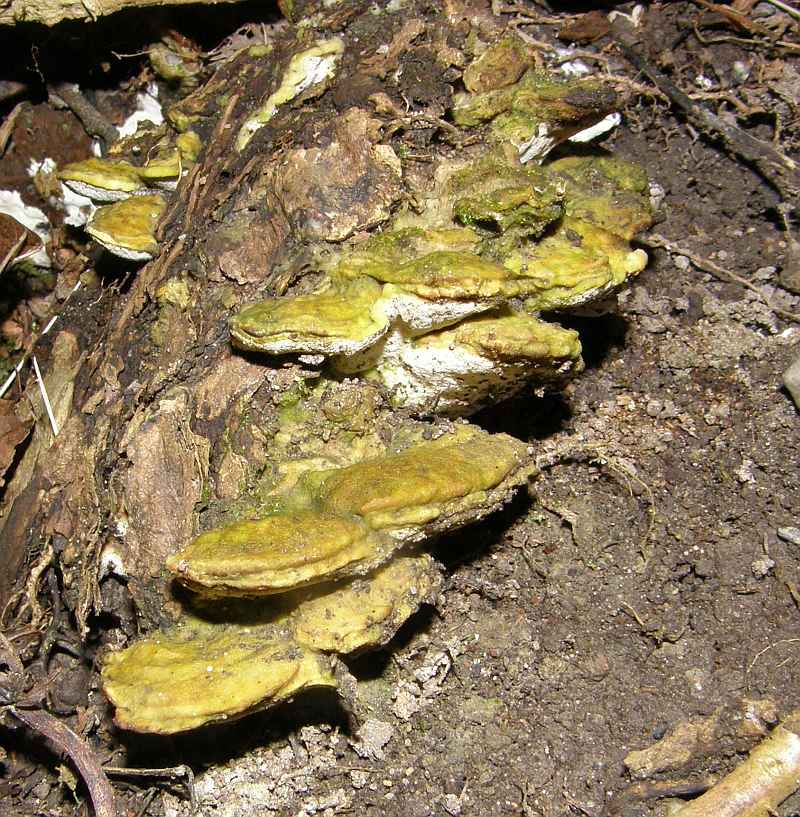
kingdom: Fungi
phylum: Basidiomycota
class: Agaricomycetes
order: Hymenochaetales
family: Oxyporaceae
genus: Oxyporus
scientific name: Oxyporus populinus
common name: sammenvokset trylleporesvamp
